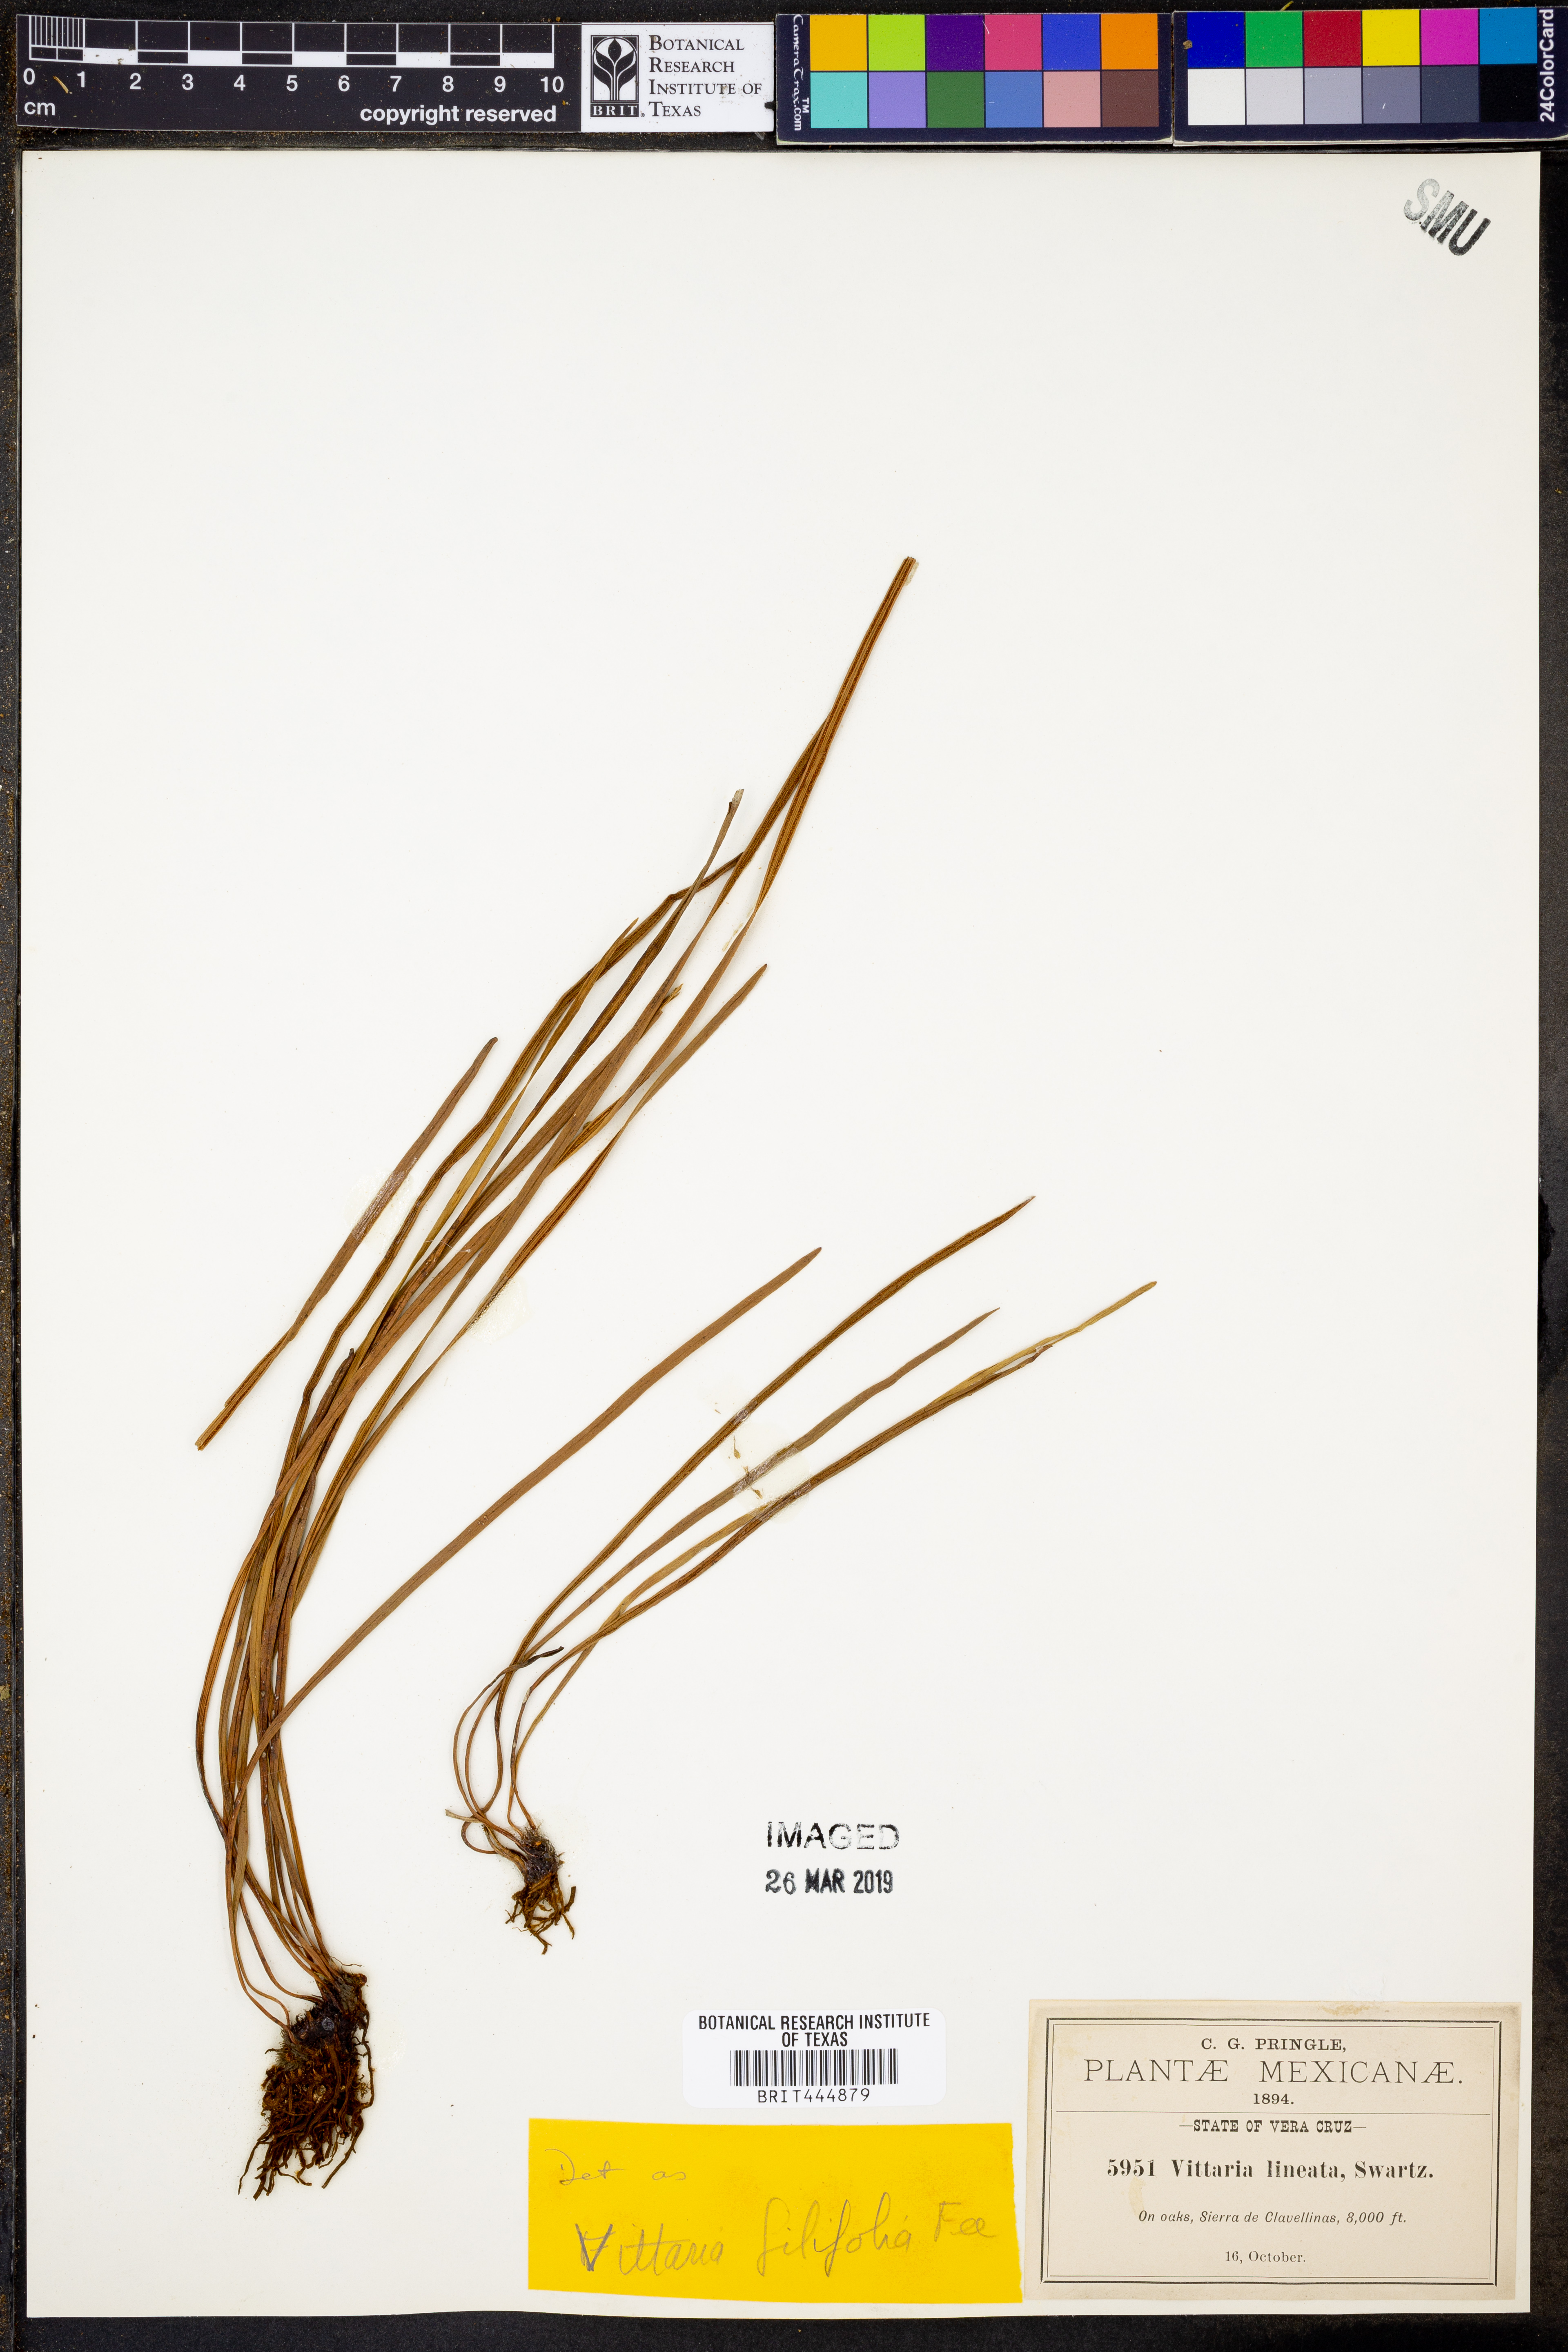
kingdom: Plantae
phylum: Tracheophyta
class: Polypodiopsida
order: Polypodiales
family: Pteridaceae
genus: Vittaria
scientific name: Vittaria graminifolia
